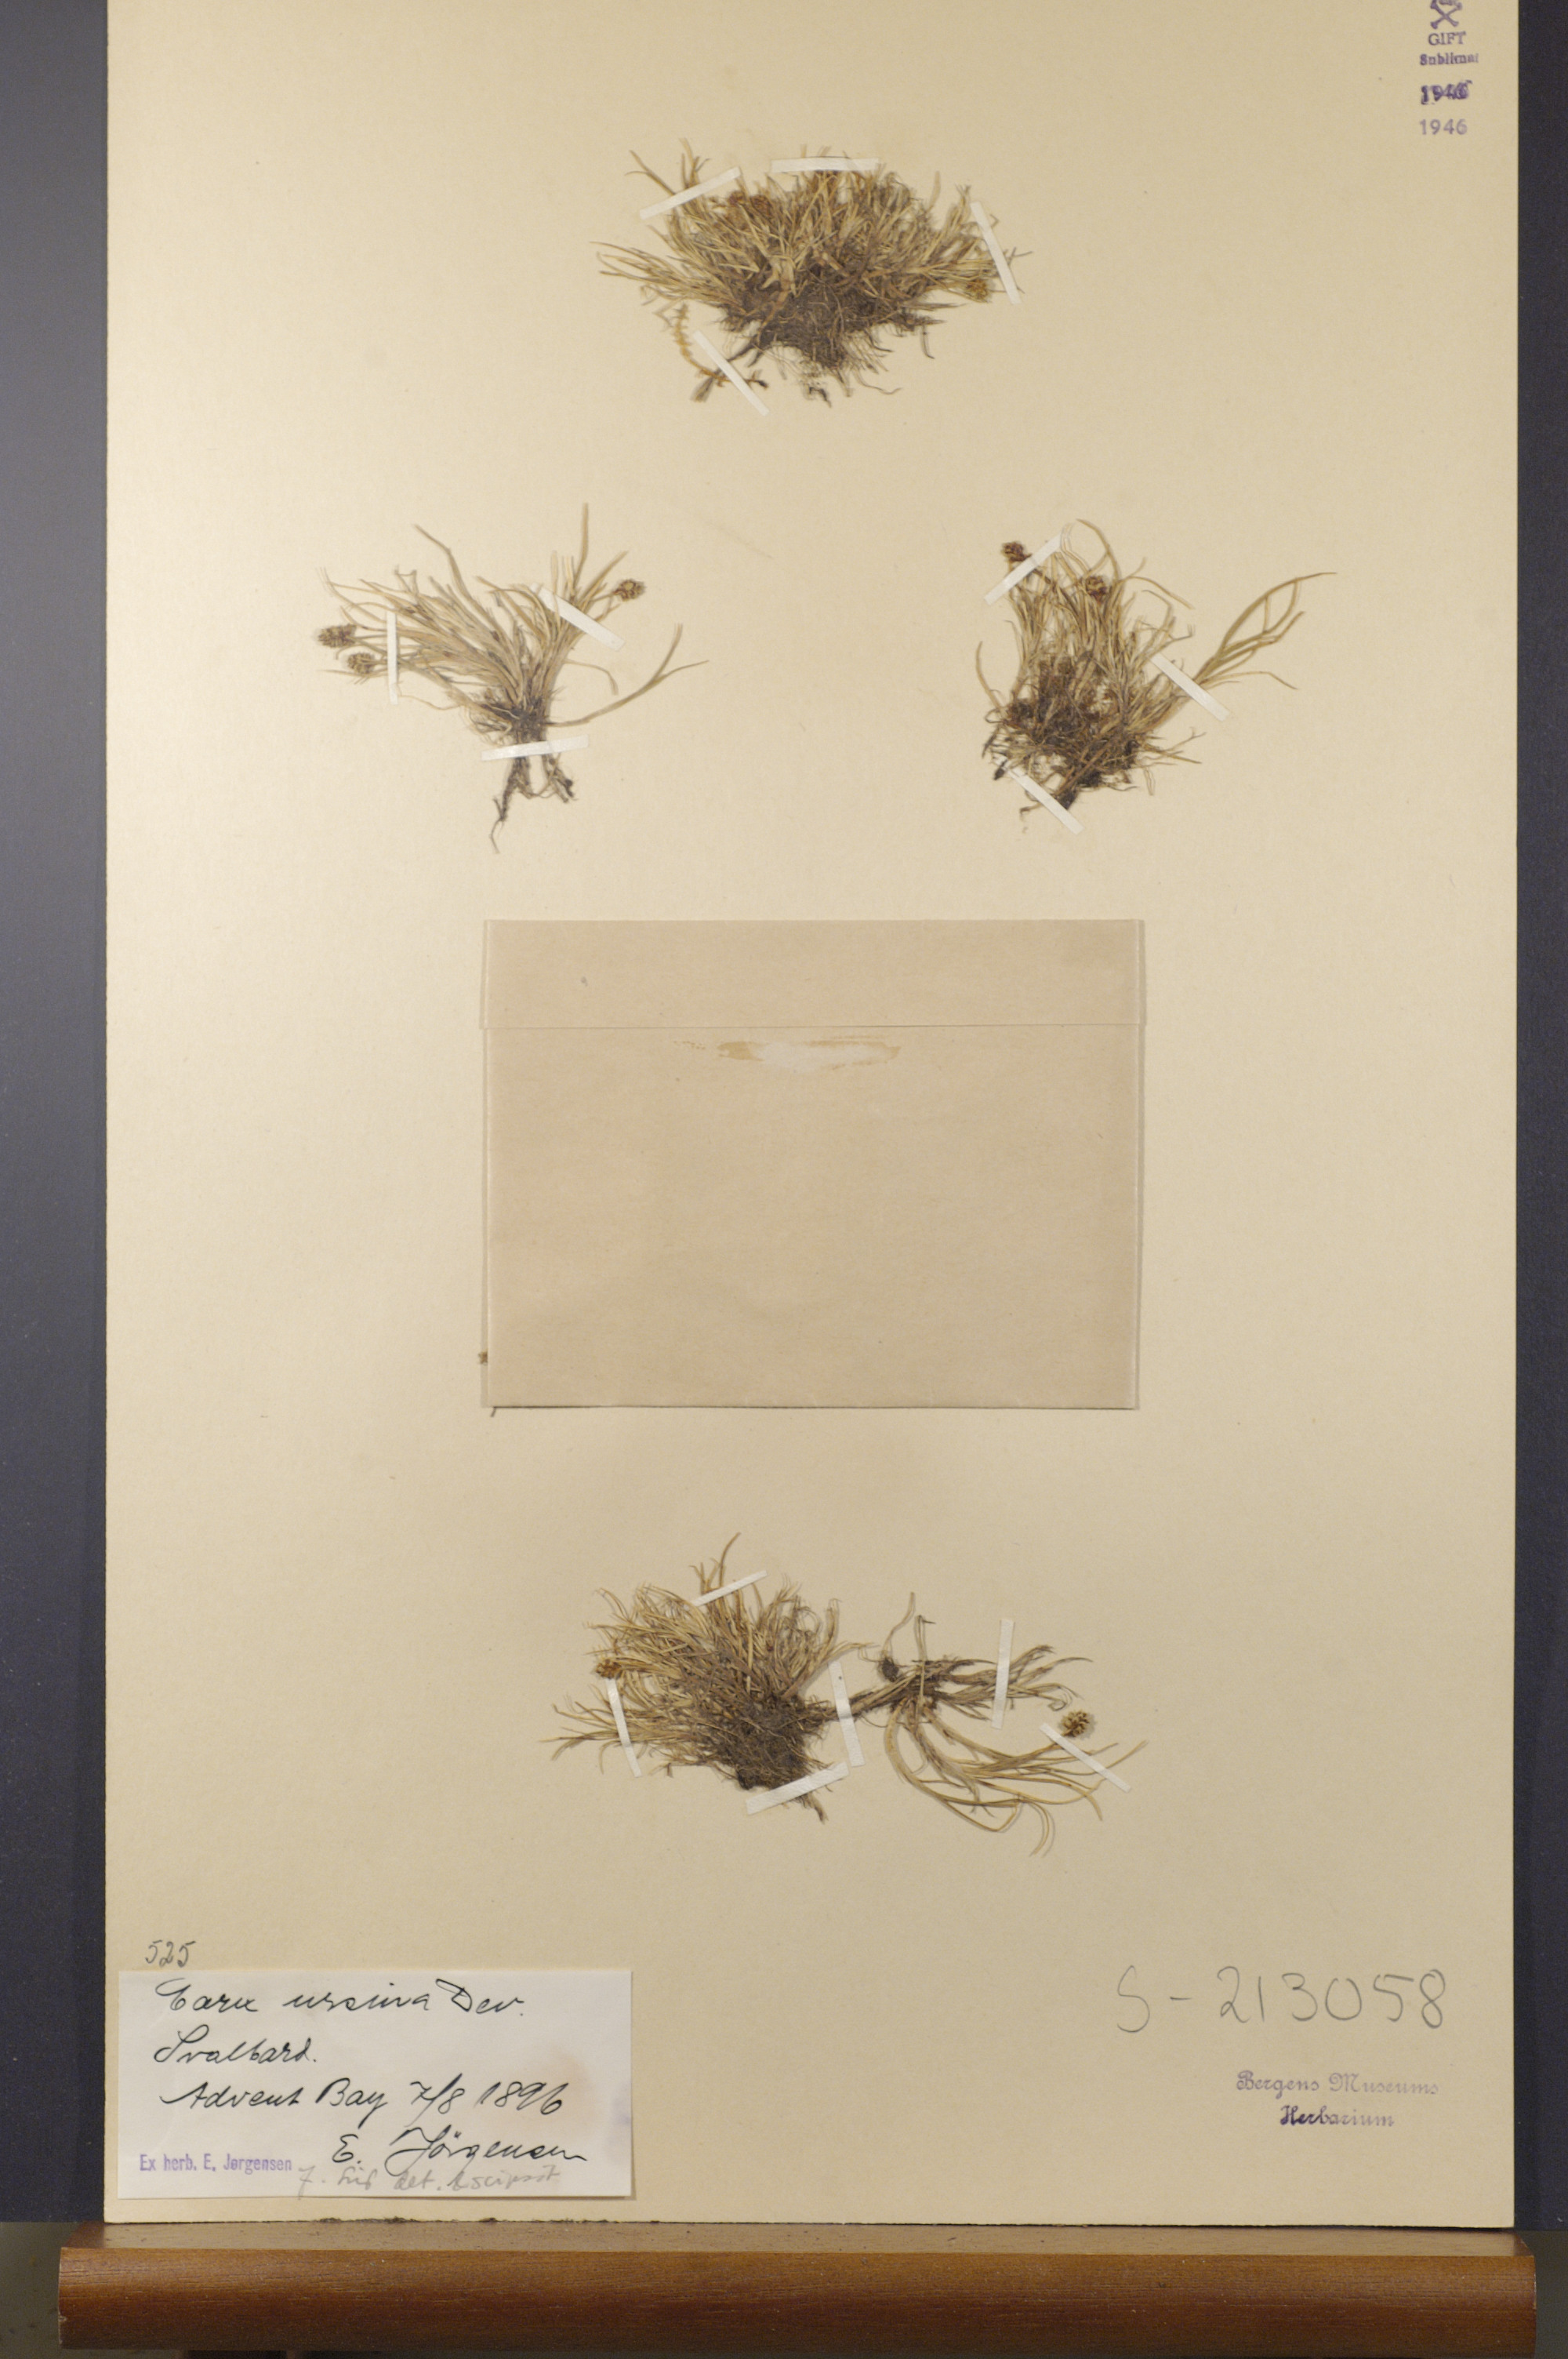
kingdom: Plantae
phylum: Tracheophyta
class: Liliopsida
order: Poales
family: Cyperaceae
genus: Carex
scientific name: Carex ursina
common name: Bear sedge
